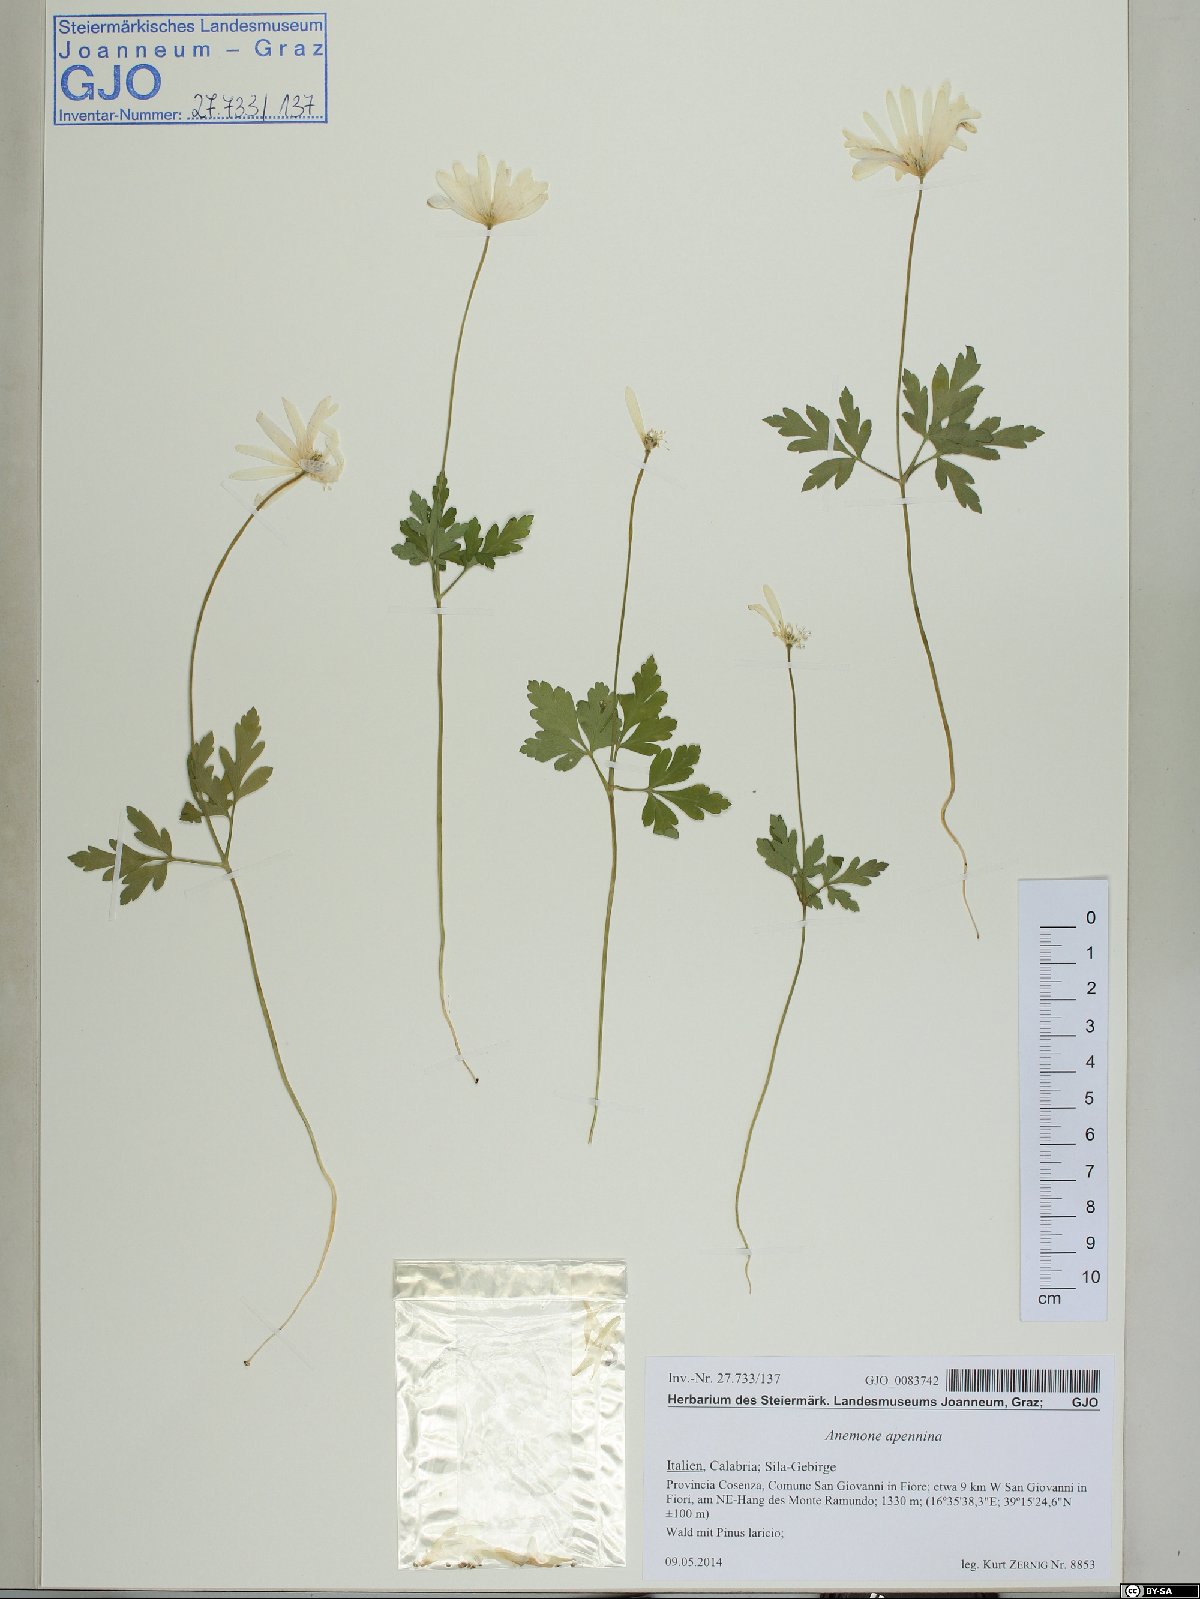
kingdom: Plantae
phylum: Tracheophyta
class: Magnoliopsida
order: Ranunculales
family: Ranunculaceae
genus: Anemone
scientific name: Anemone apennina
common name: Blue anemone
